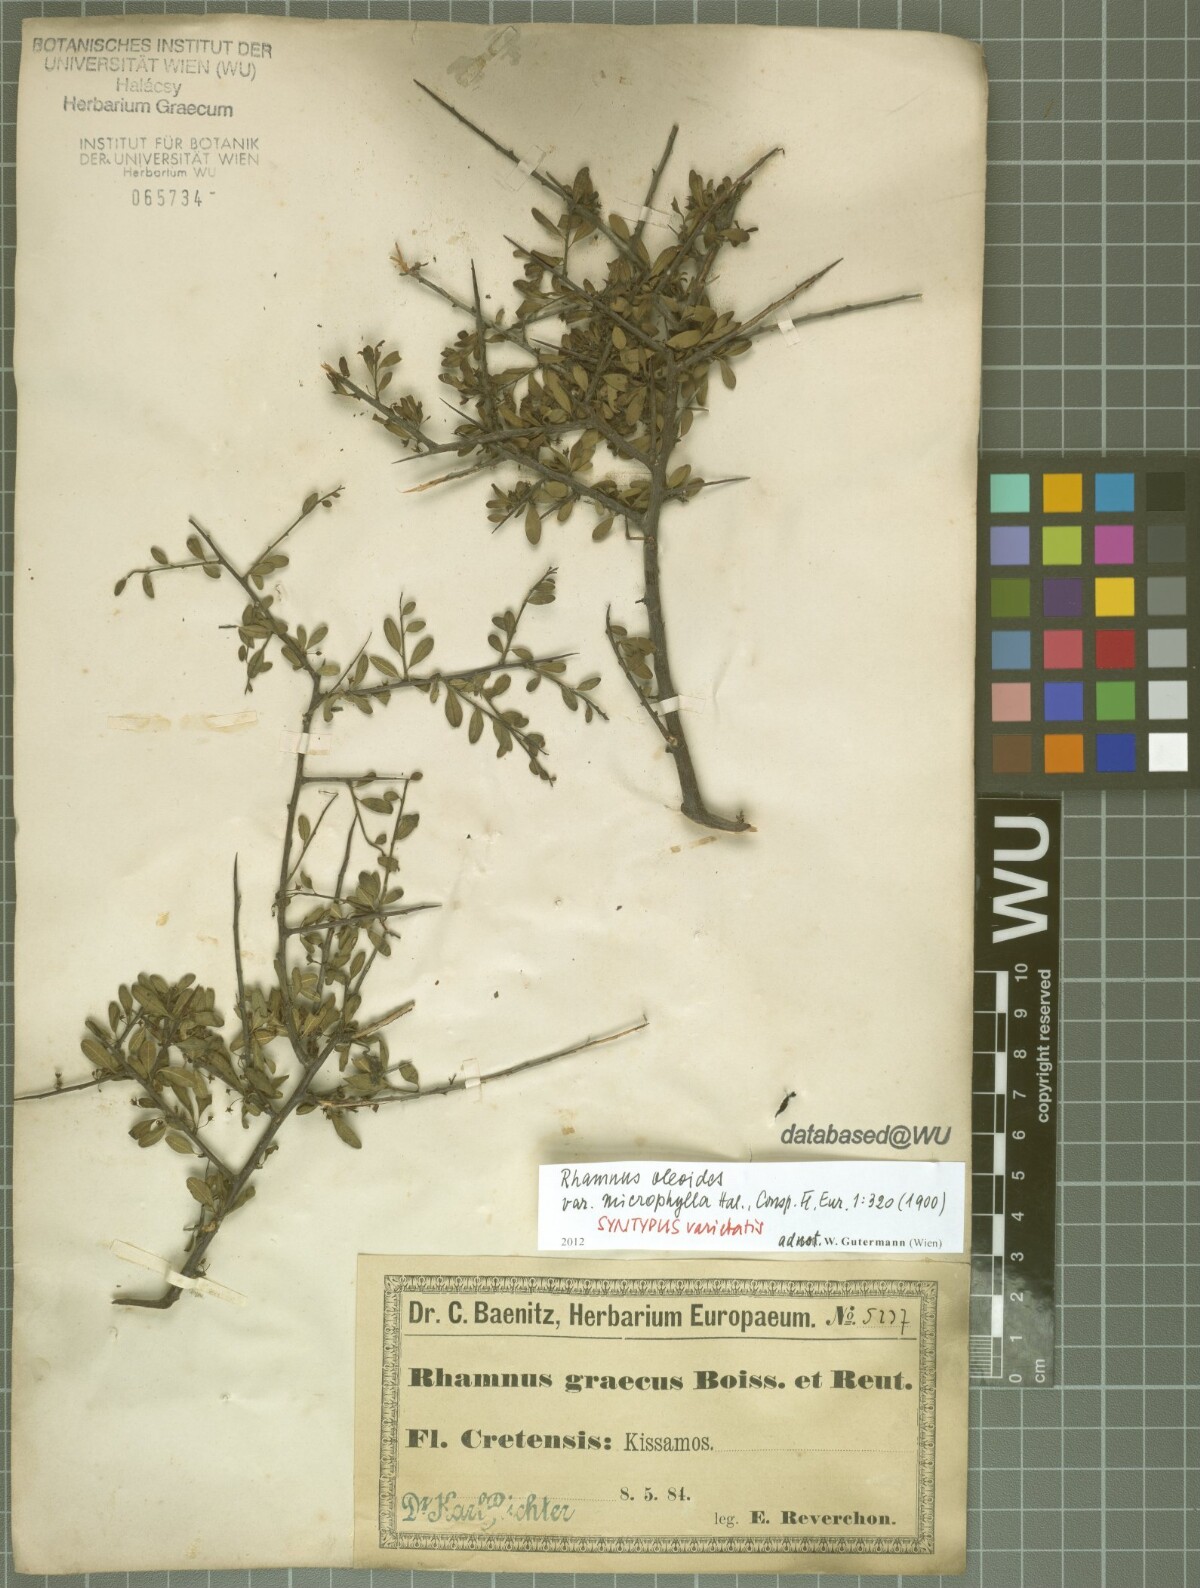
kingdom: Plantae
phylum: Tracheophyta
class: Magnoliopsida
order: Rosales
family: Rhamnaceae
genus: Rhamnus
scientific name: Rhamnus oleoides
